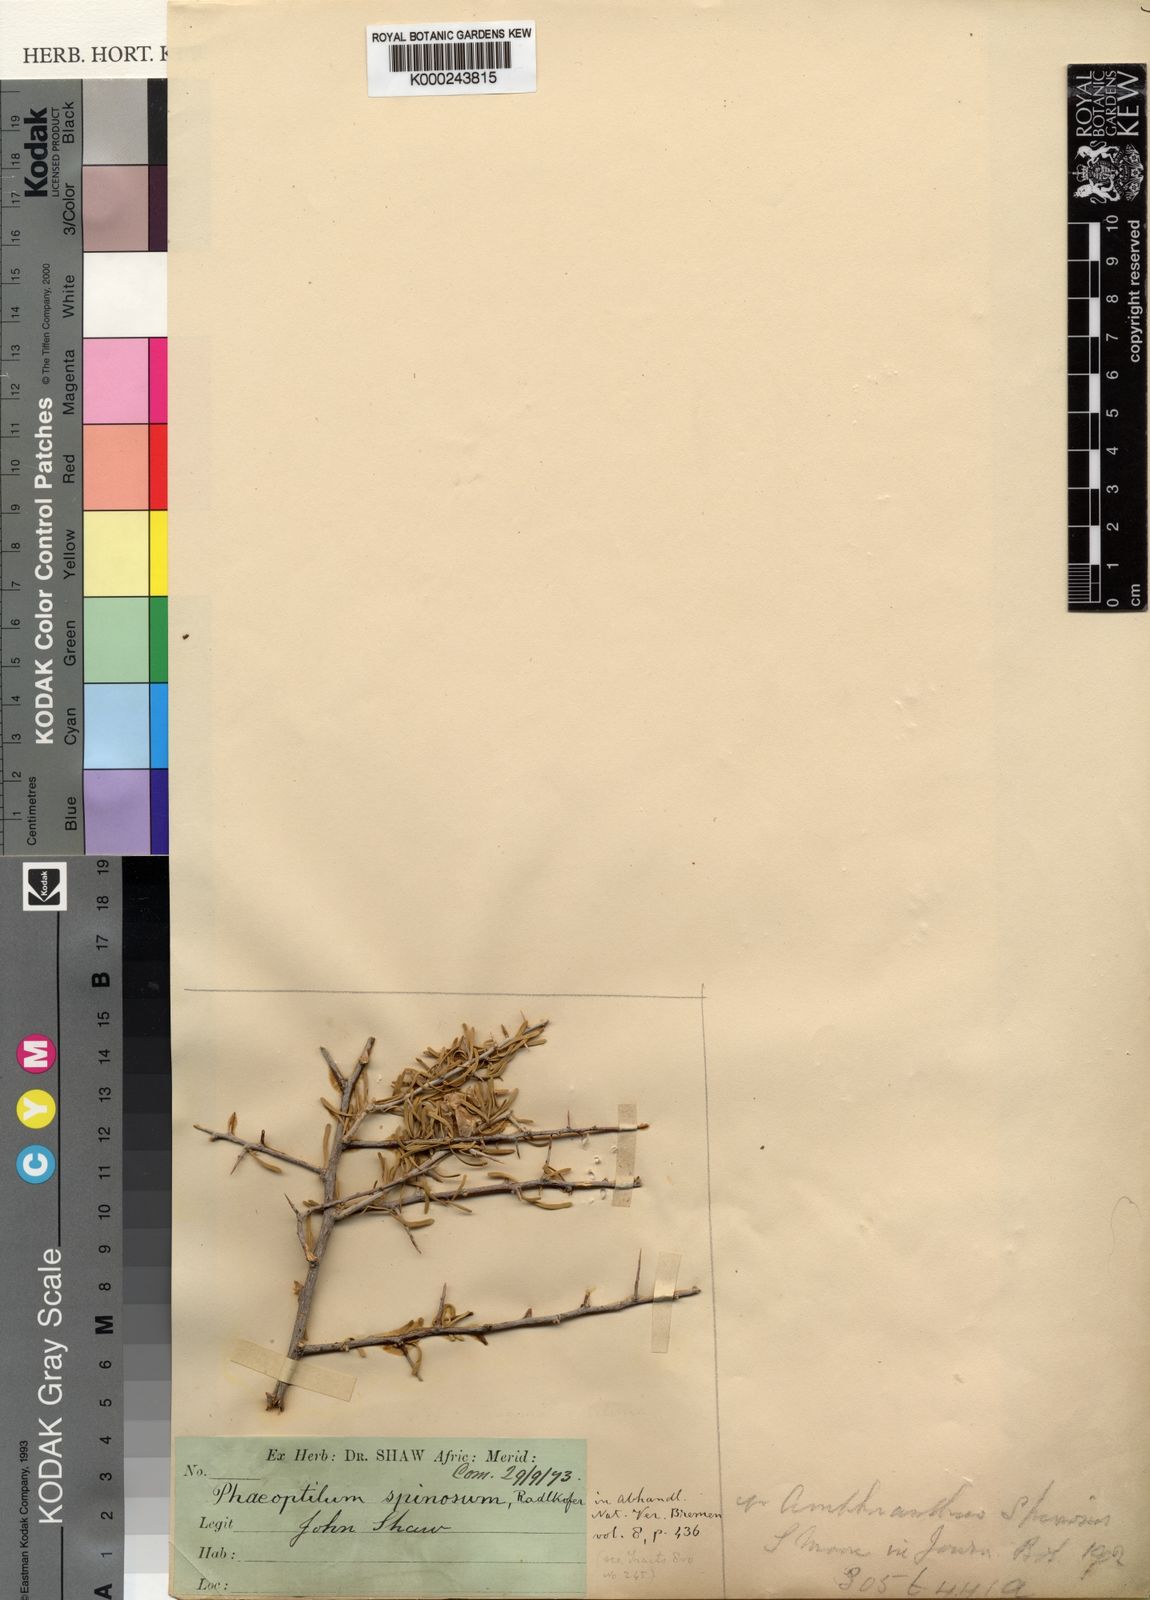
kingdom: Plantae
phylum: Tracheophyta
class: Magnoliopsida
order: Caryophyllales
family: Nyctaginaceae
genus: Phaeoptilum
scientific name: Phaeoptilum spinosum
